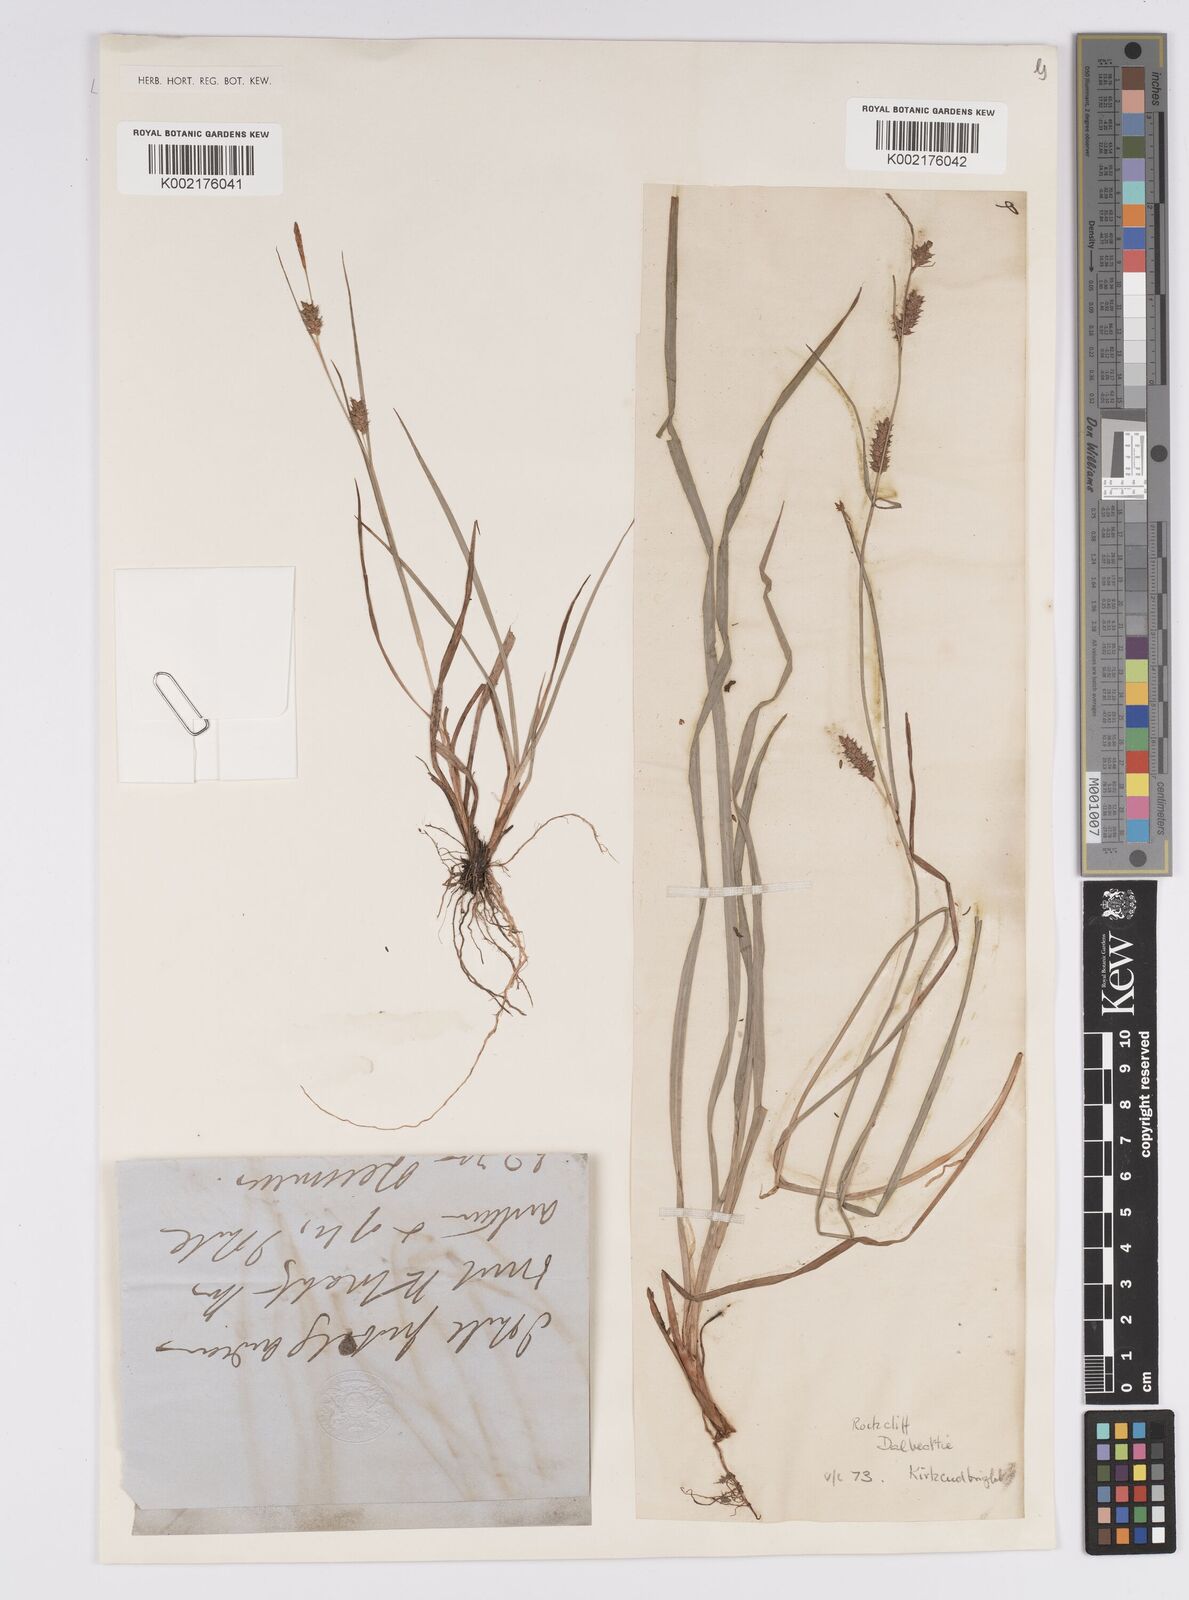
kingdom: Plantae
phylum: Tracheophyta
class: Liliopsida
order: Poales
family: Cyperaceae
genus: Carex
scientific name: Carex punctata
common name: Dotted sedge
